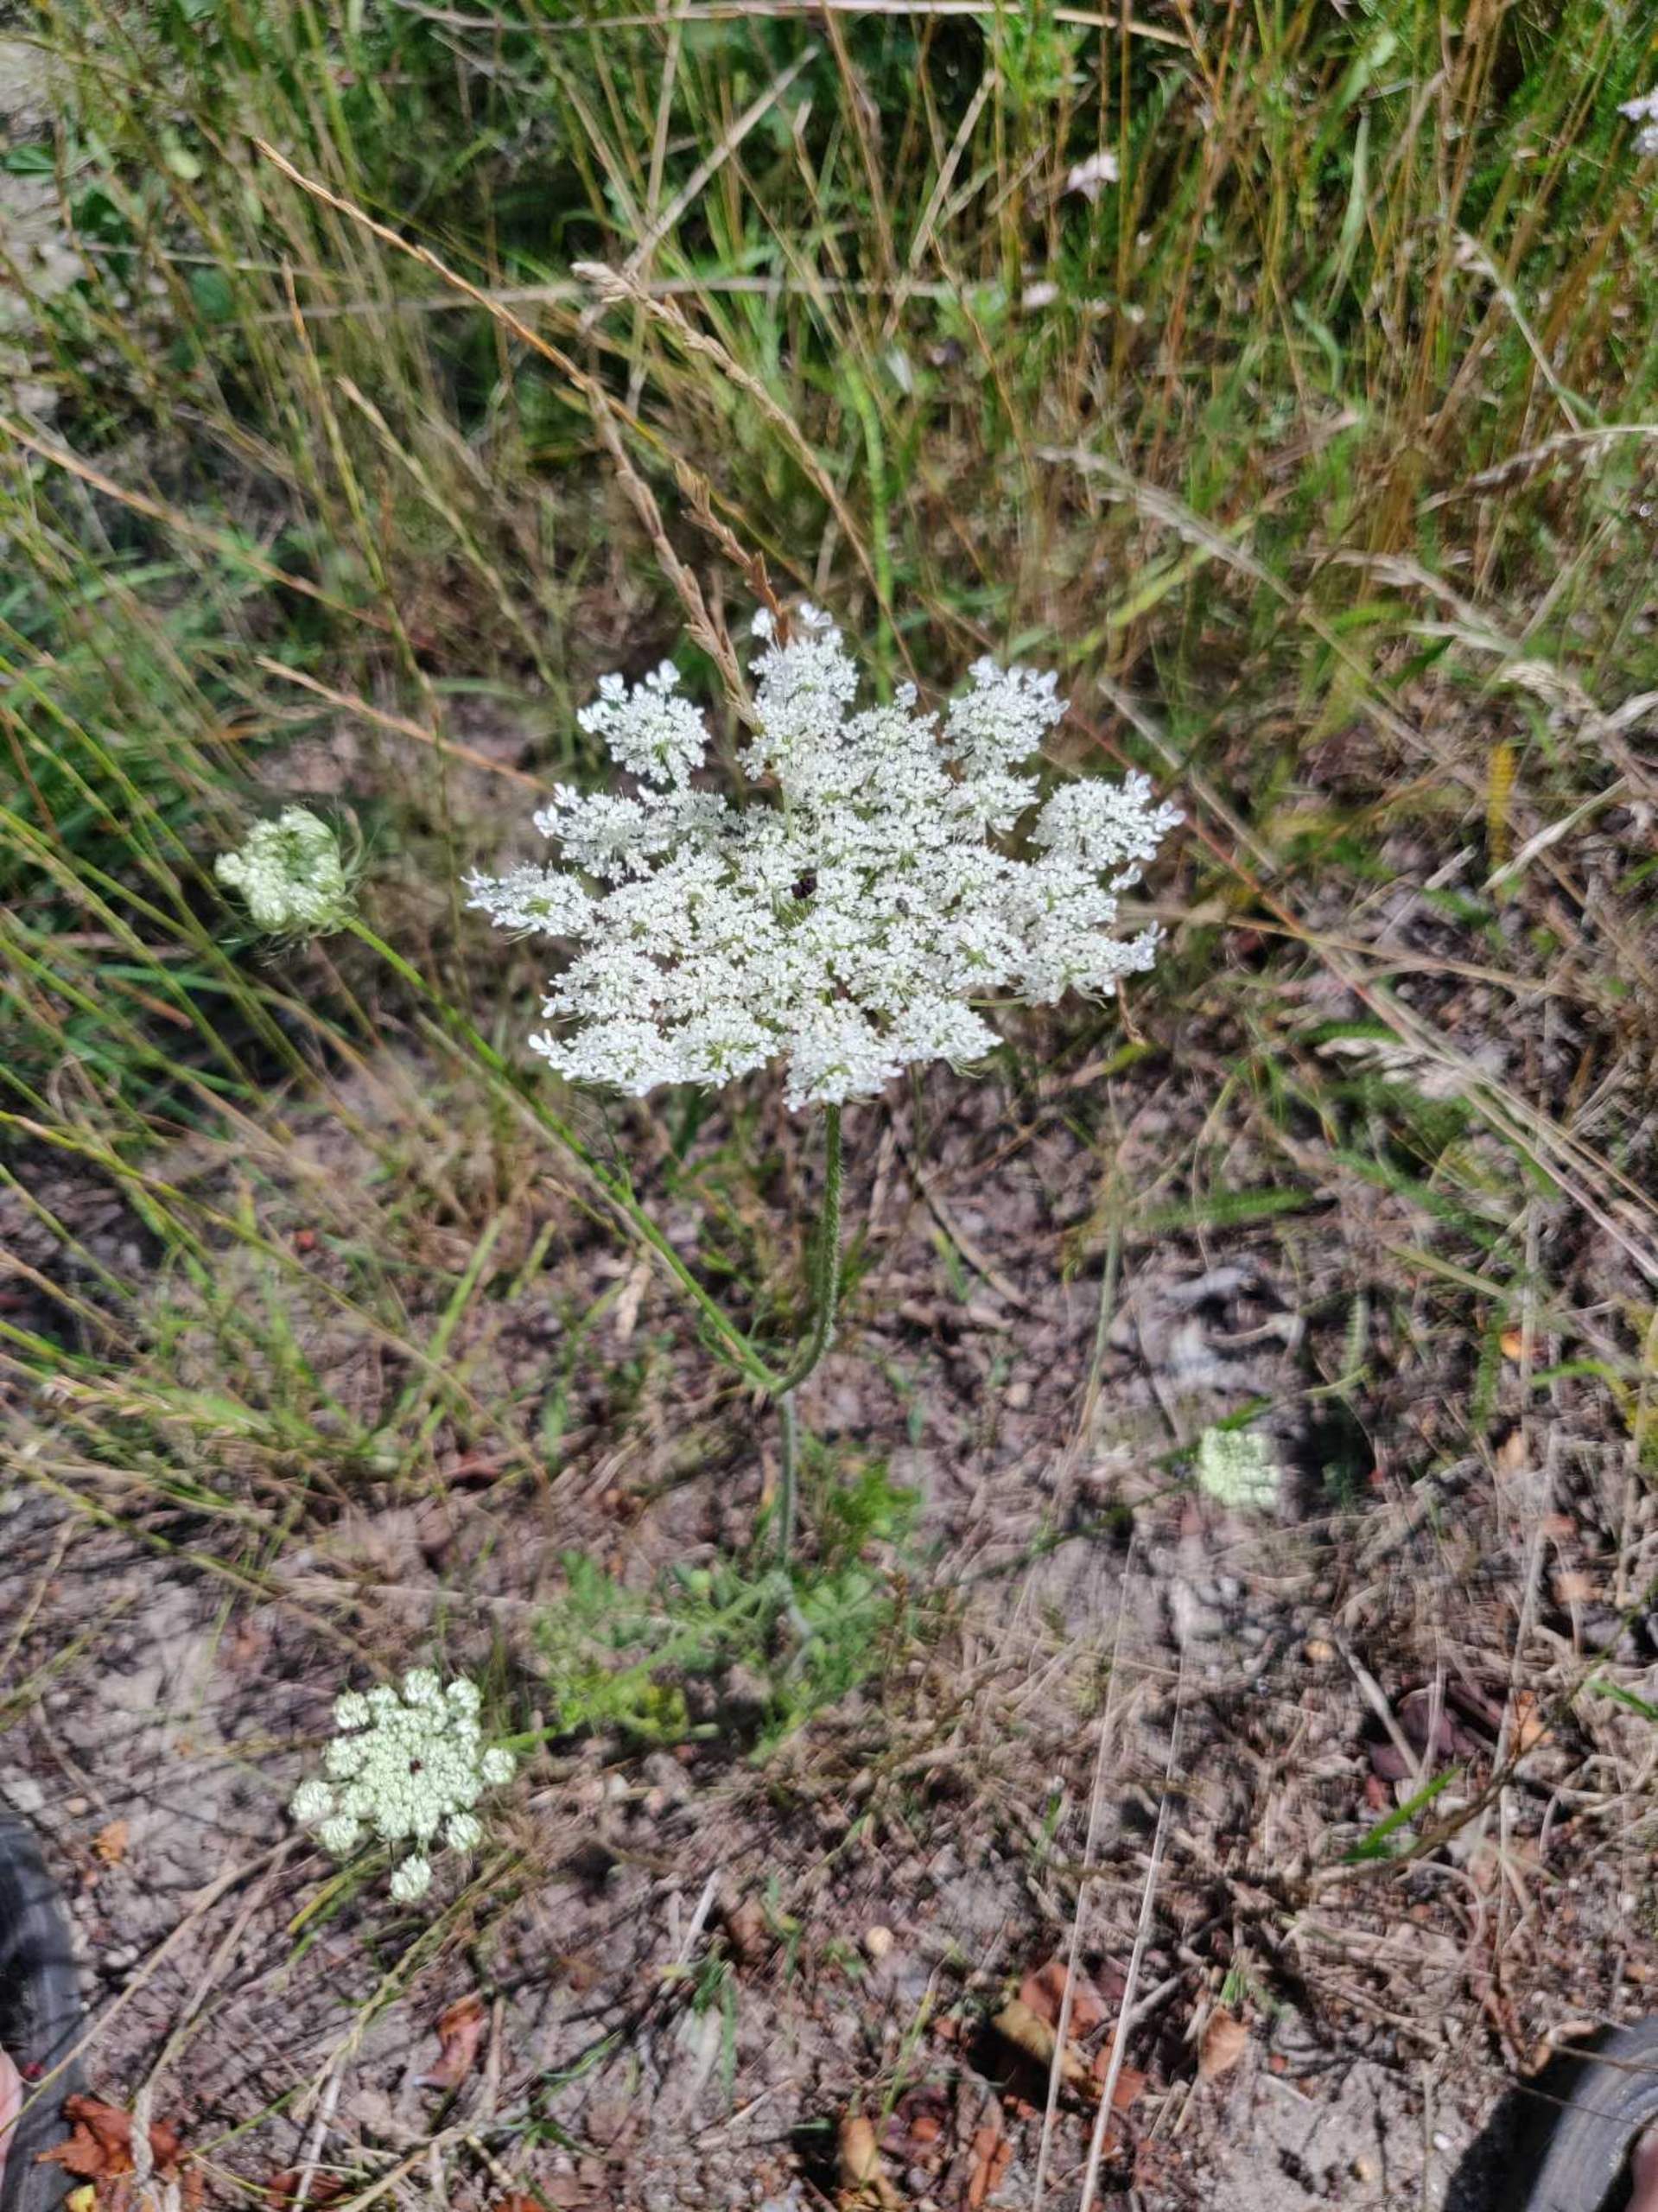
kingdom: Plantae
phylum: Tracheophyta
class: Magnoliopsida
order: Apiales
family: Apiaceae
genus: Daucus
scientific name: Daucus carota
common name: Gulerod
